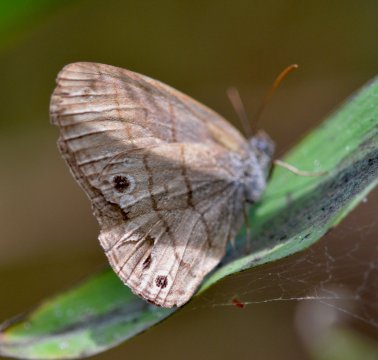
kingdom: Animalia
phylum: Arthropoda
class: Insecta
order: Lepidoptera
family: Nymphalidae
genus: Hermeuptychia
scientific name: Hermeuptychia hermes
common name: Carolina Satyr
